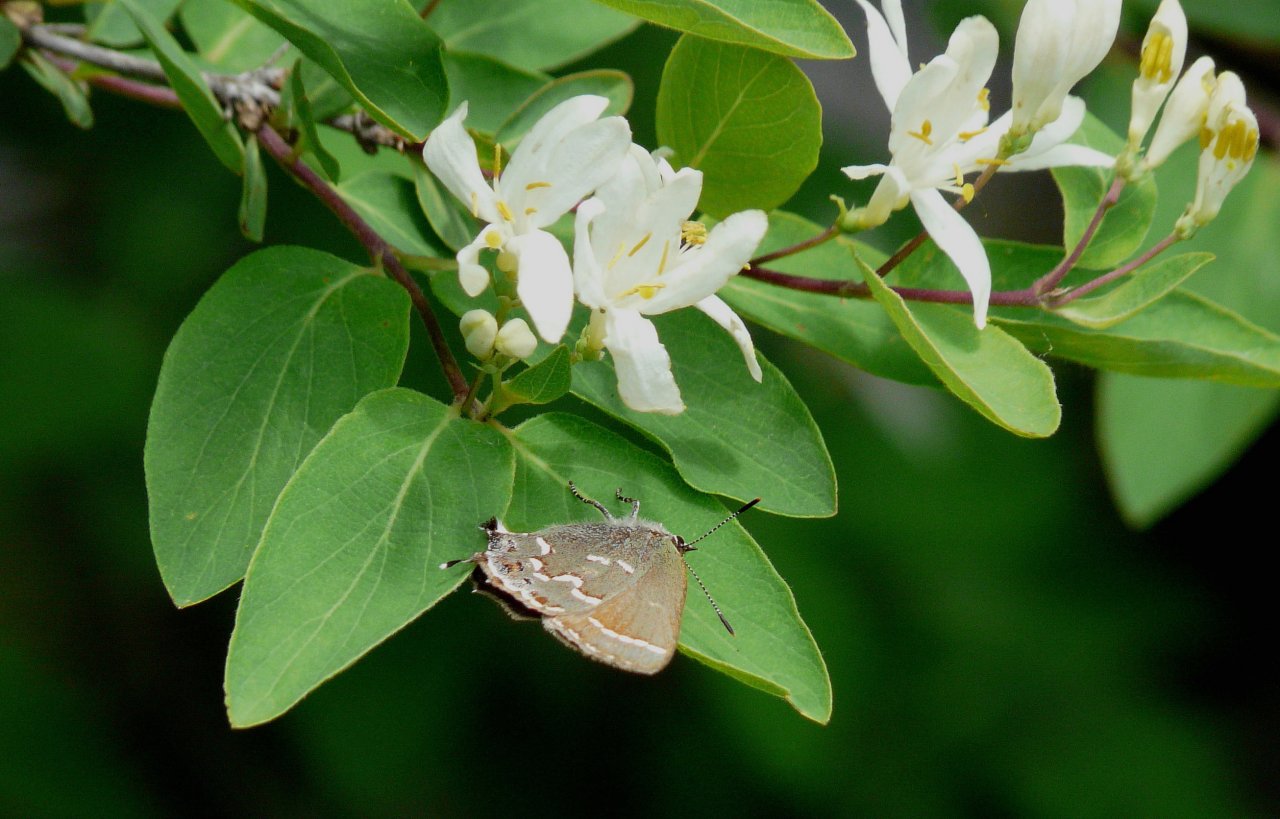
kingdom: Animalia
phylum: Arthropoda
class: Insecta
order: Lepidoptera
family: Lycaenidae
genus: Mitoura
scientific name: Mitoura gryneus
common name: Juniper Hairstreak
